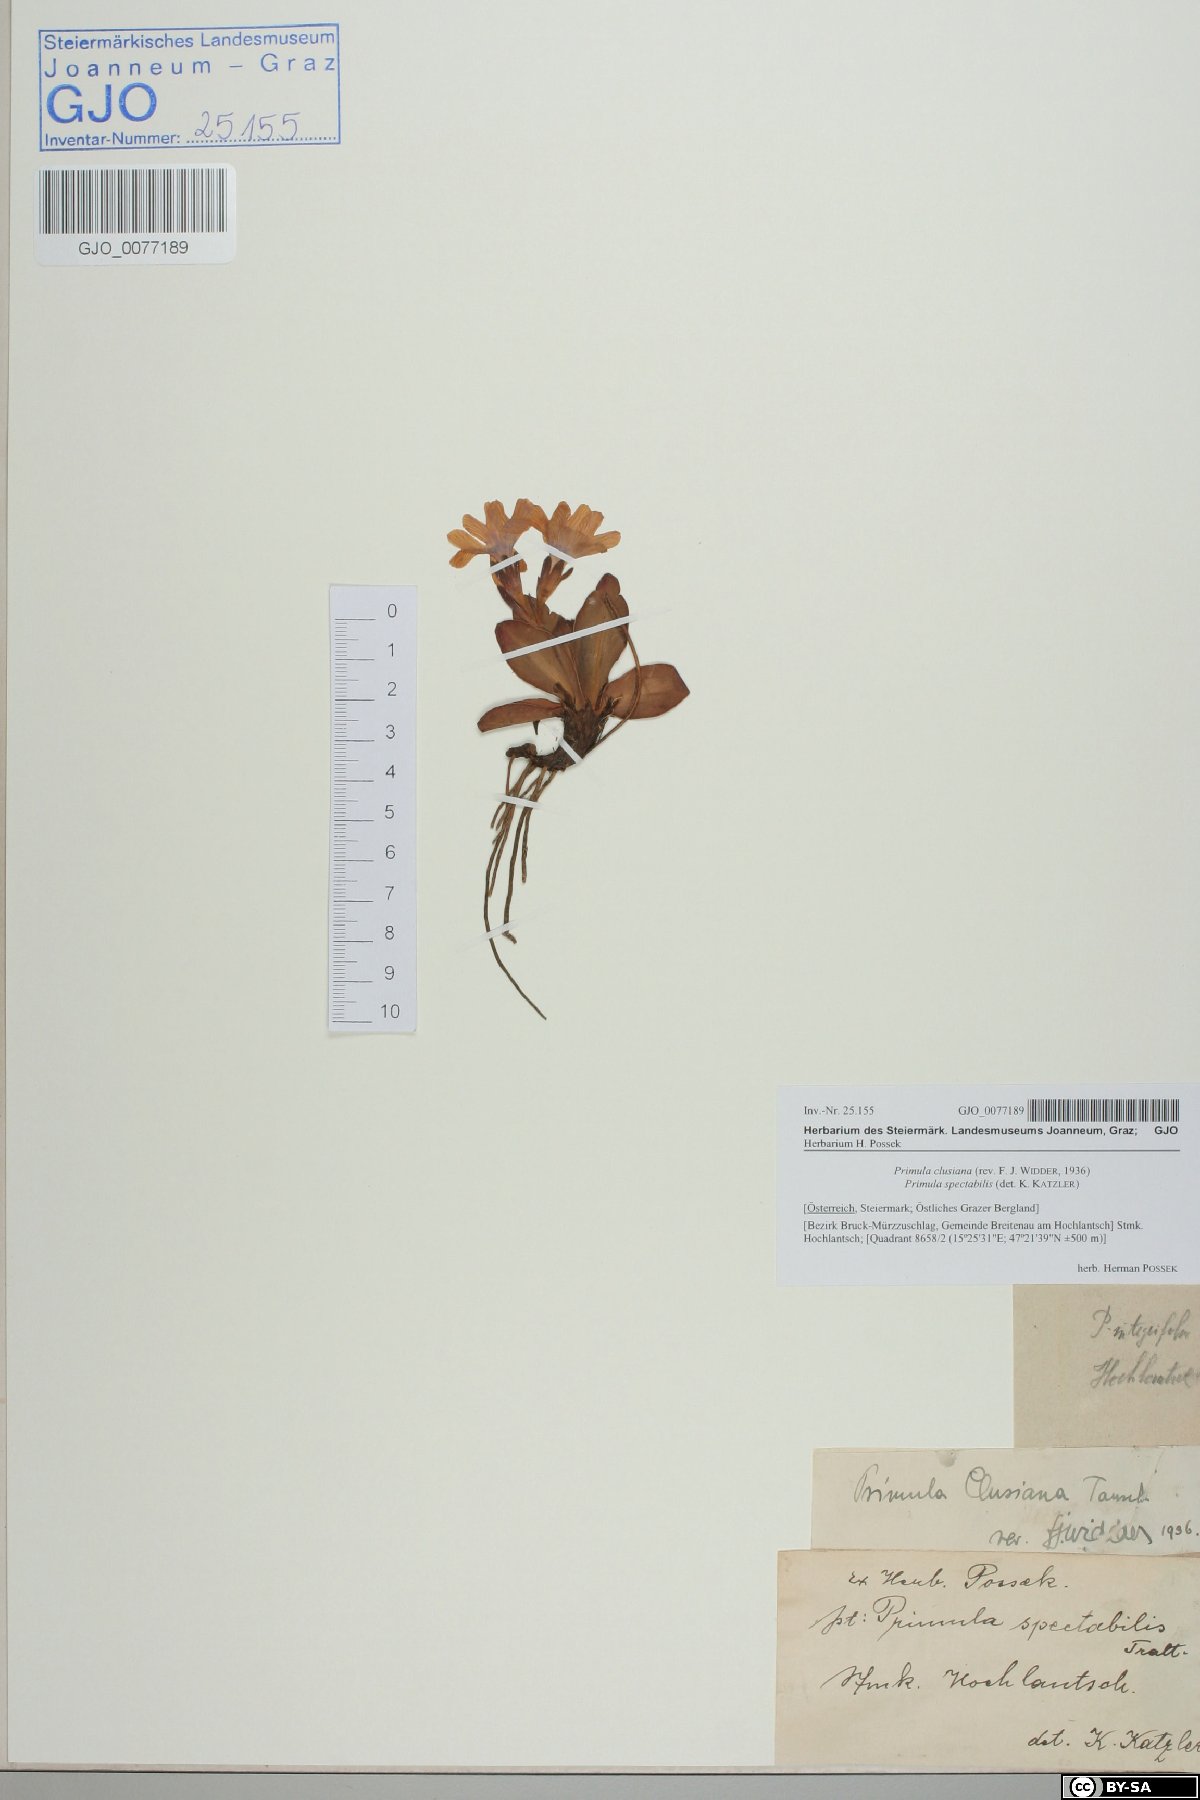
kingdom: Plantae
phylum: Tracheophyta
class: Magnoliopsida
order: Ericales
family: Primulaceae
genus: Primula
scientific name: Primula clusiana
